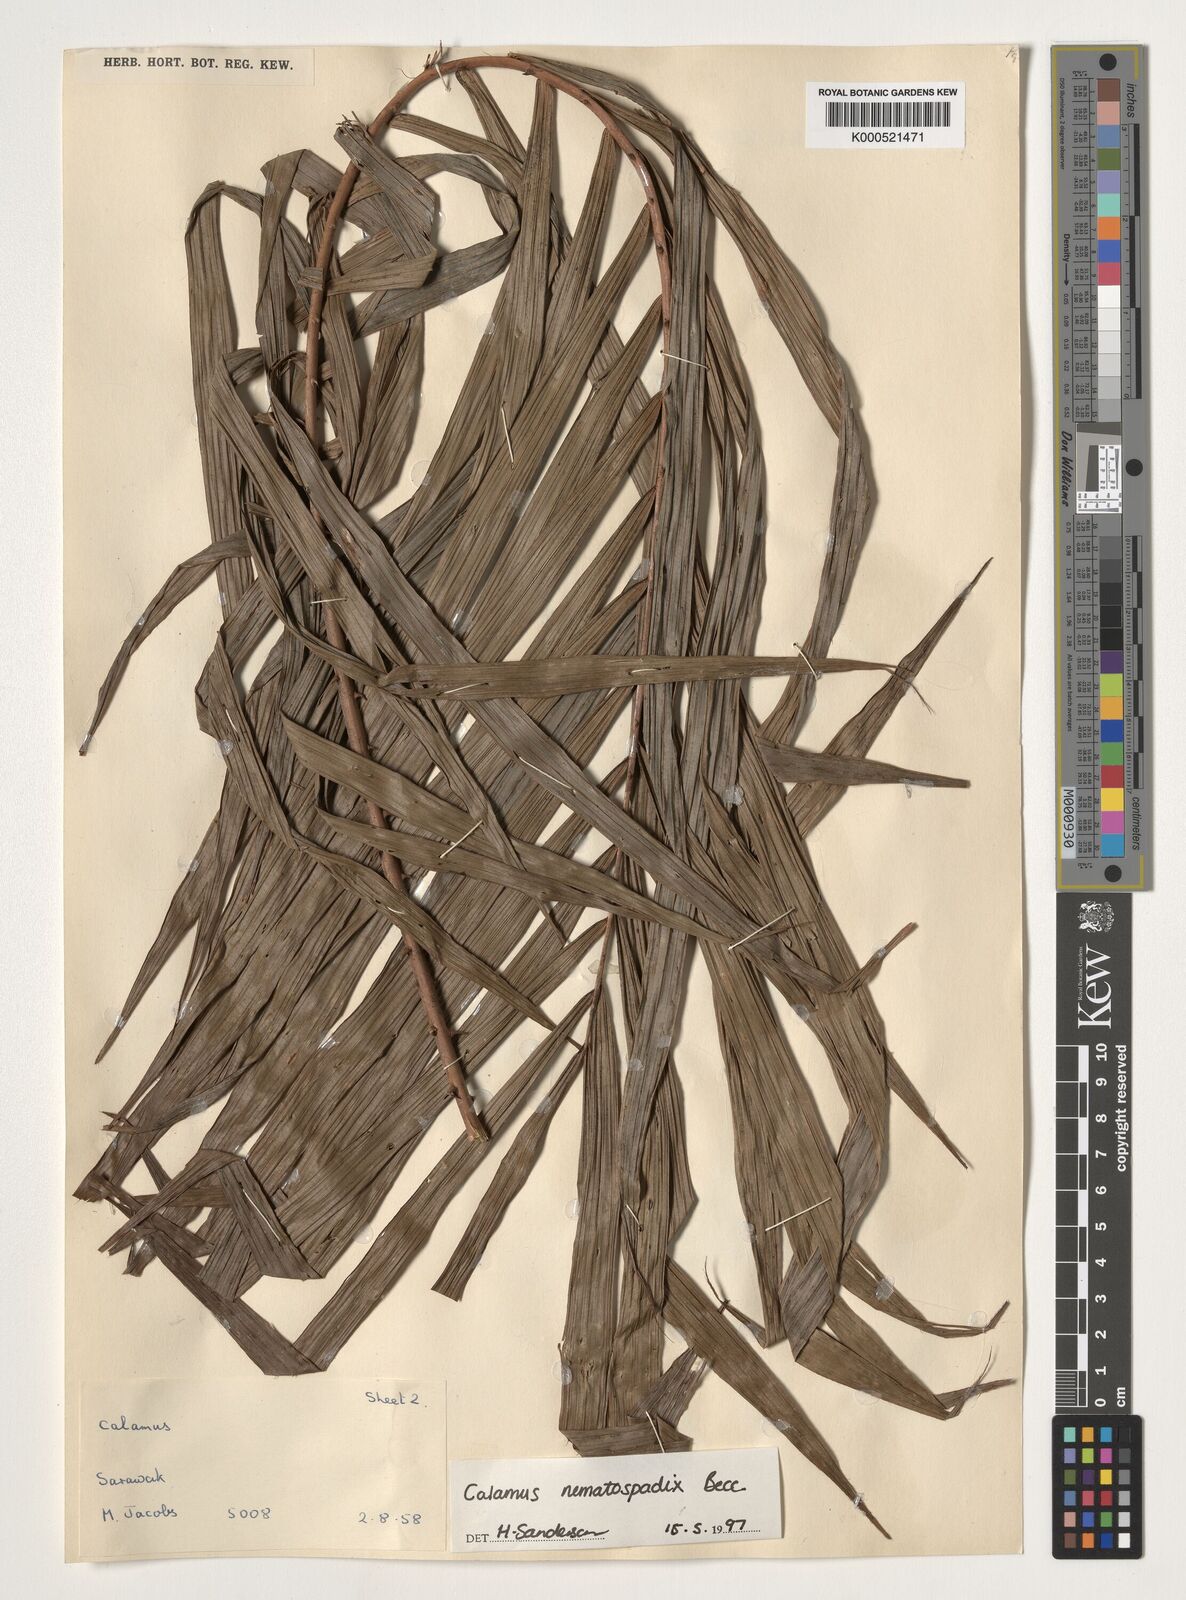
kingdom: Plantae
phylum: Tracheophyta
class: Liliopsida
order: Arecales
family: Arecaceae
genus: Calamus
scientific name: Calamus nematospadix
